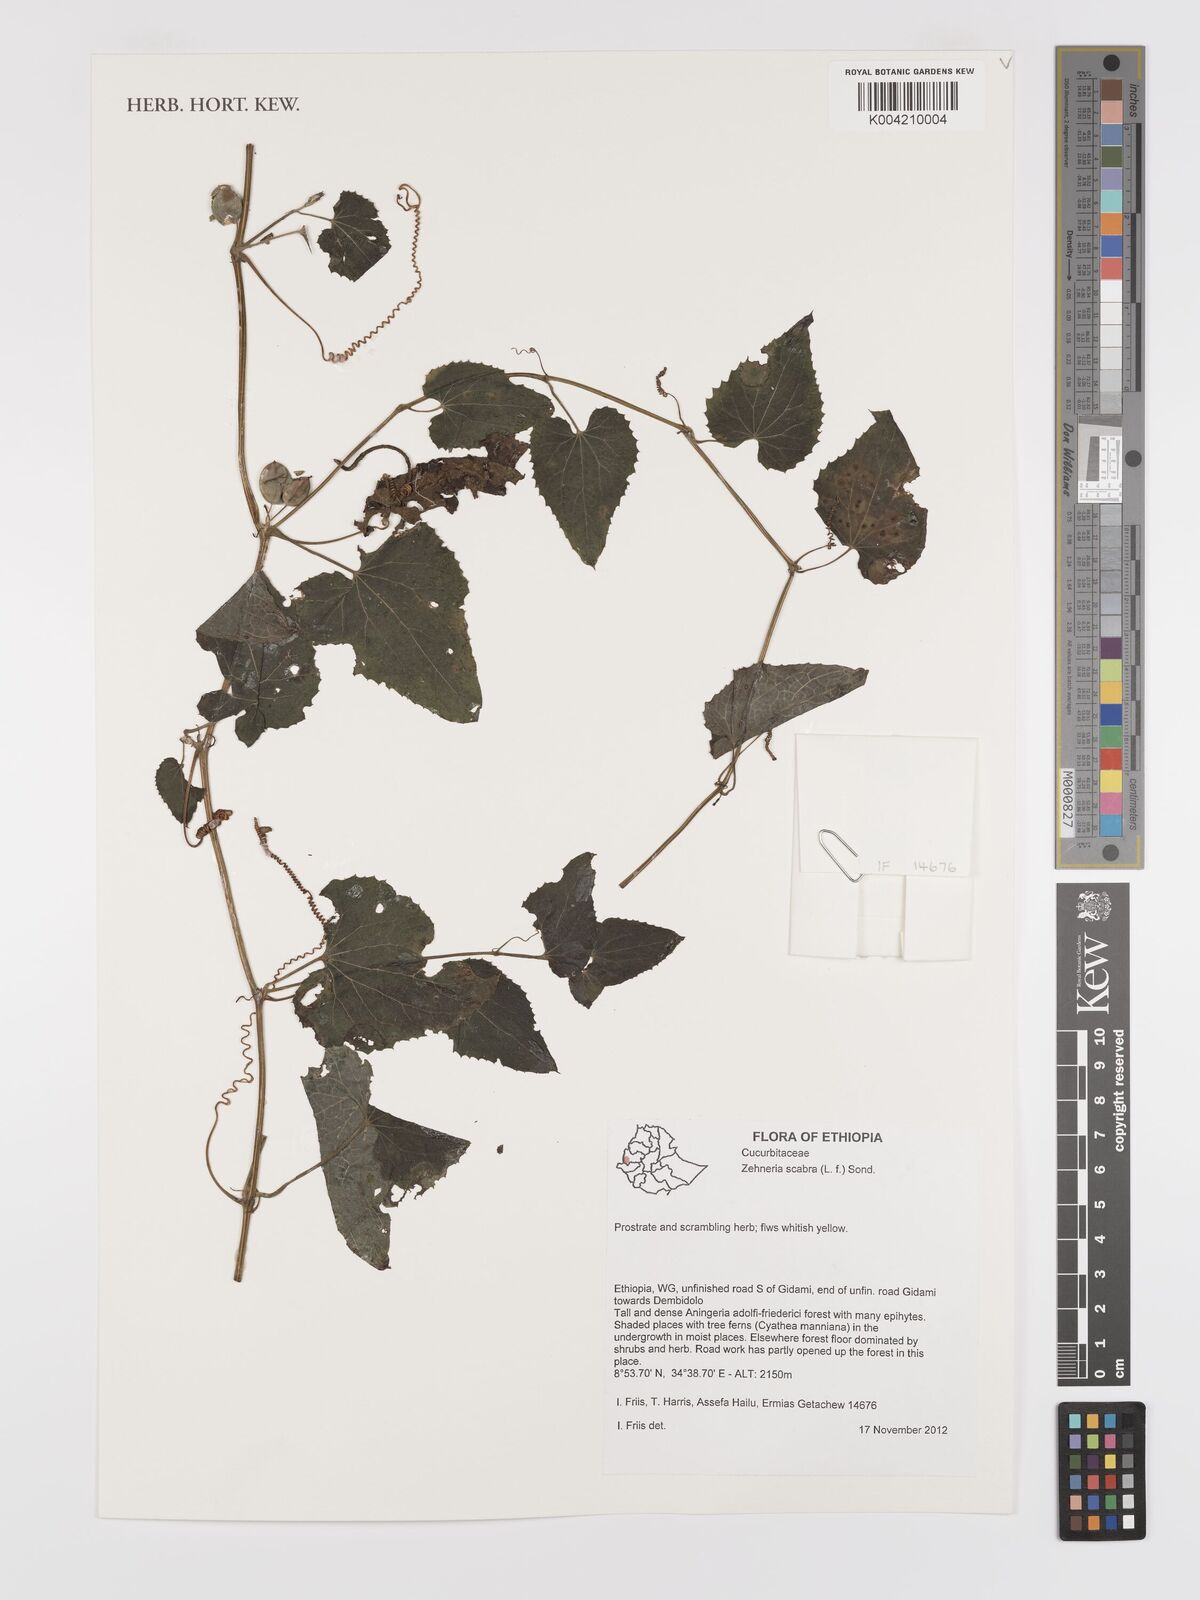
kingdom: Plantae
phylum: Tracheophyta
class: Magnoliopsida
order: Cucurbitales
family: Cucurbitaceae
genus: Zehneria
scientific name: Zehneria scabra
